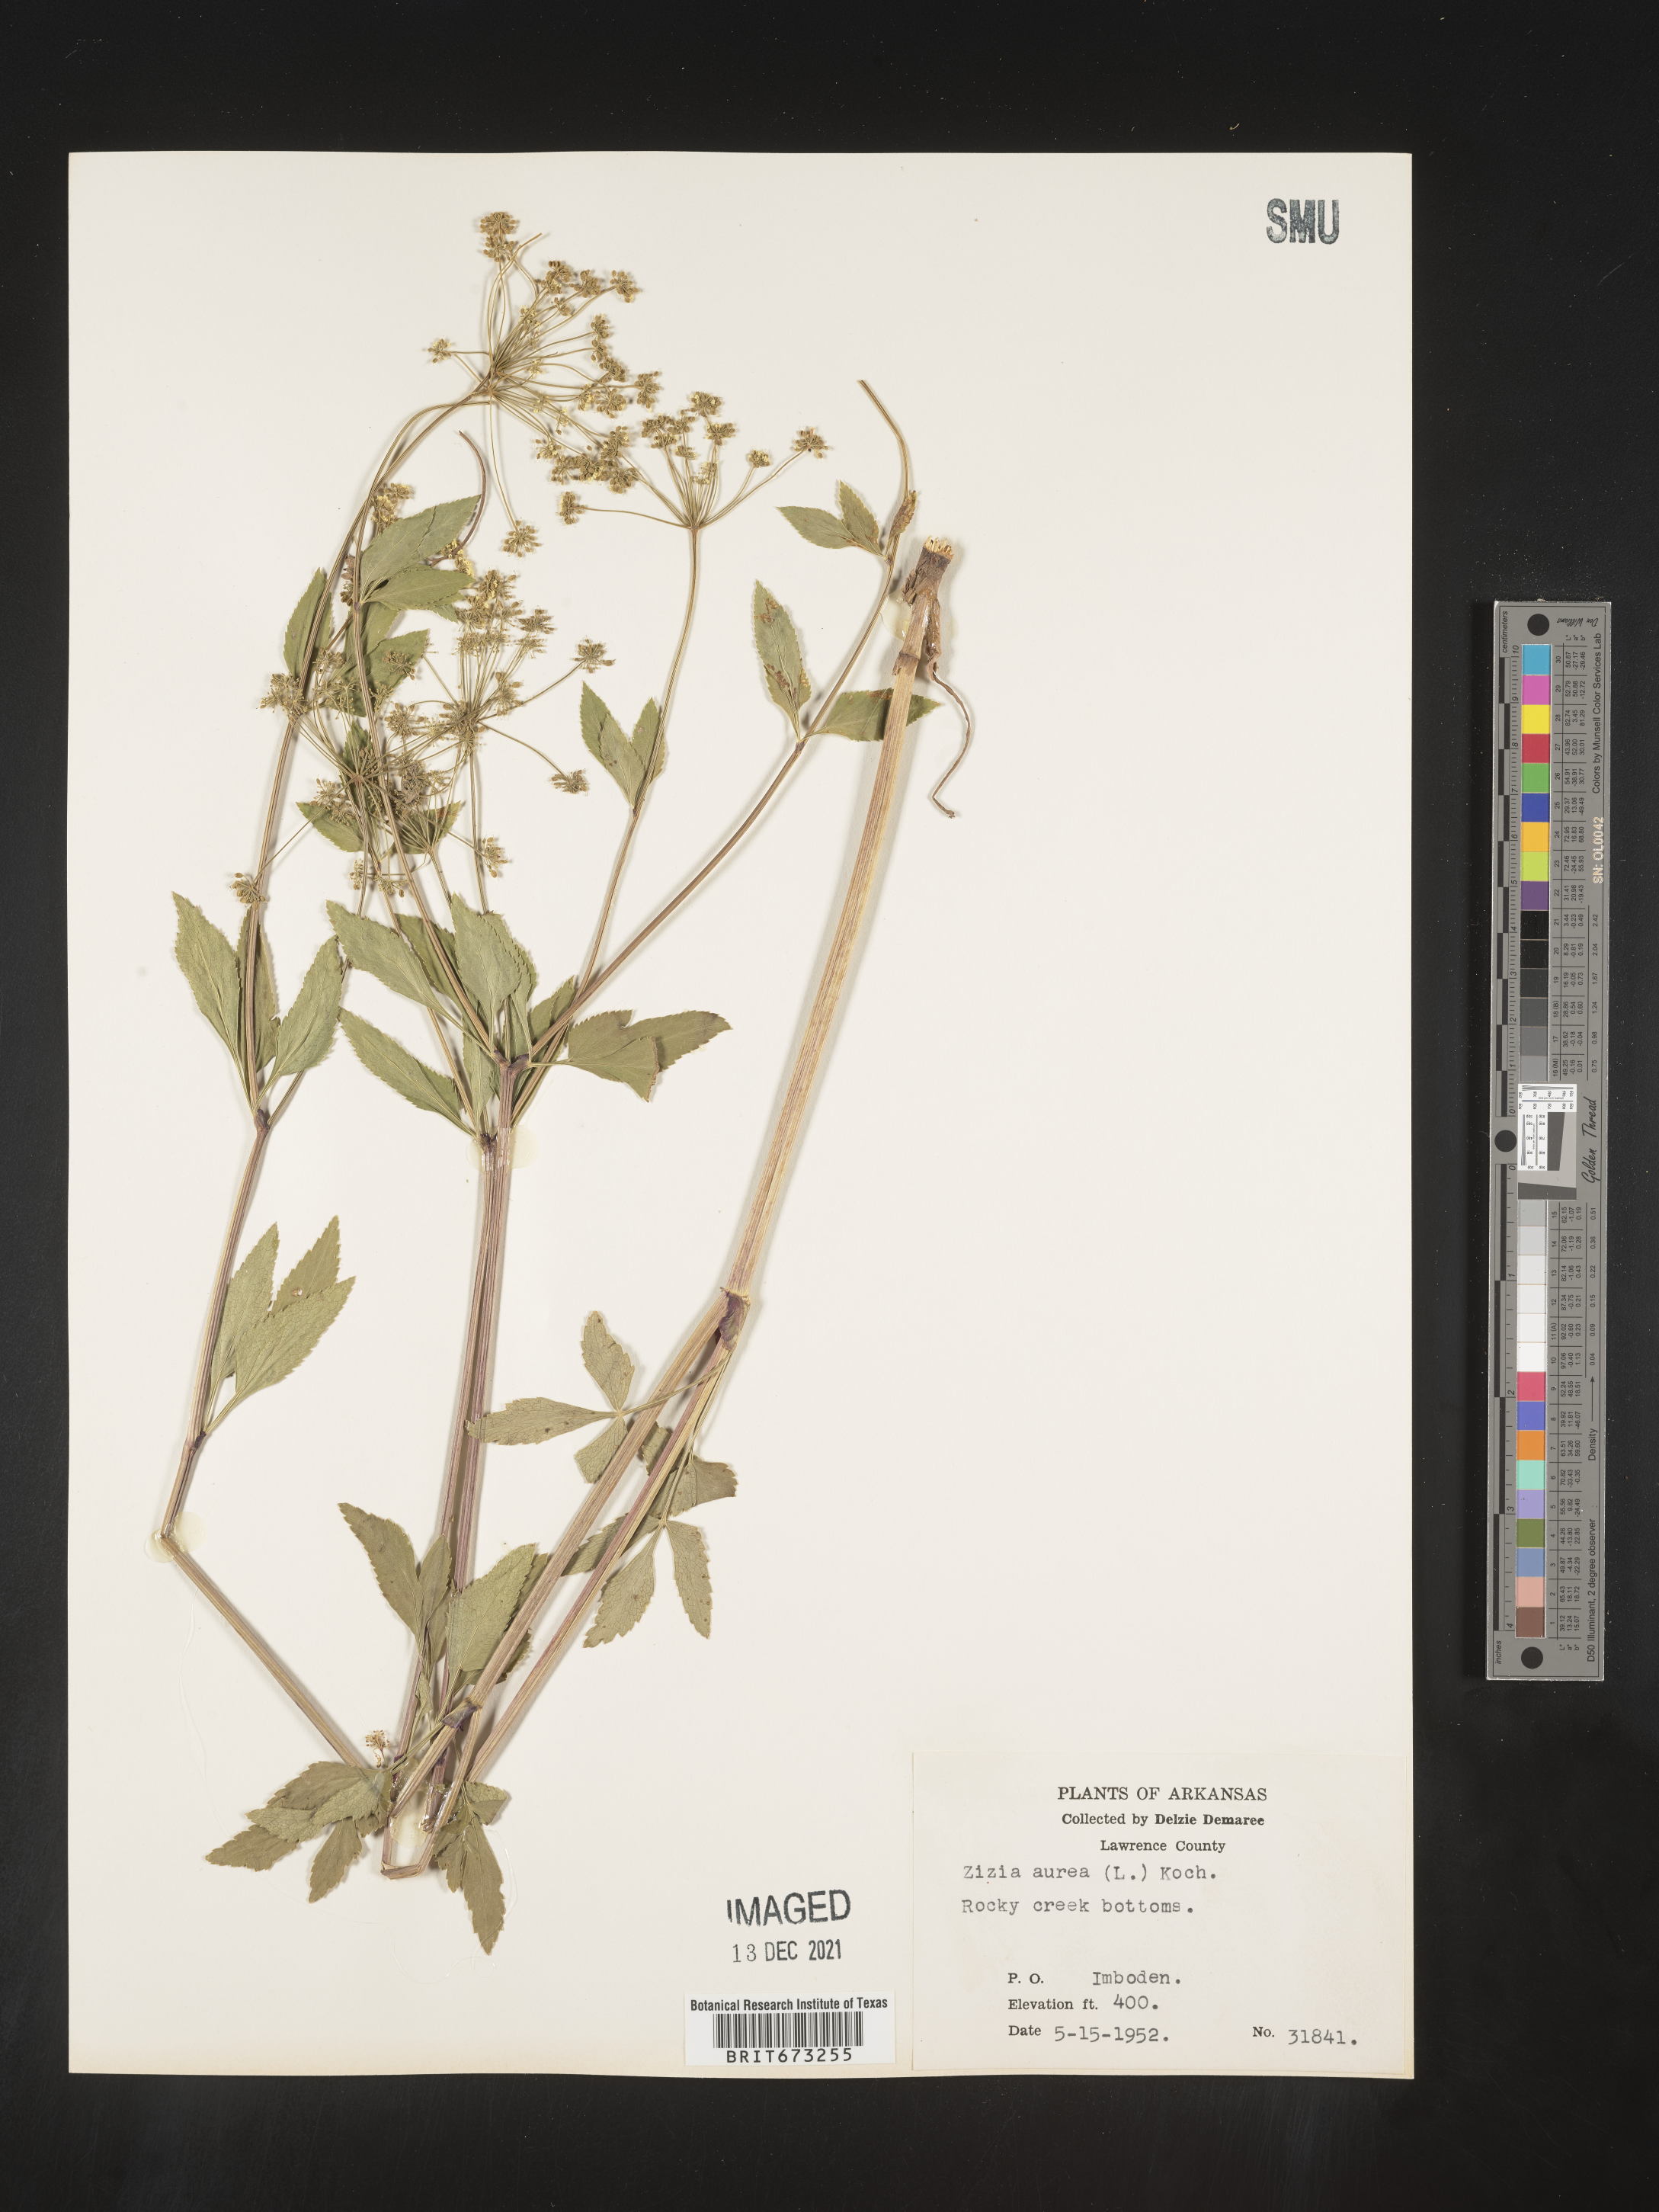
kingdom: Plantae
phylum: Tracheophyta
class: Magnoliopsida
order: Apiales
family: Apiaceae
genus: Zizia
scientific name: Zizia aurea
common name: Golden alexanders
